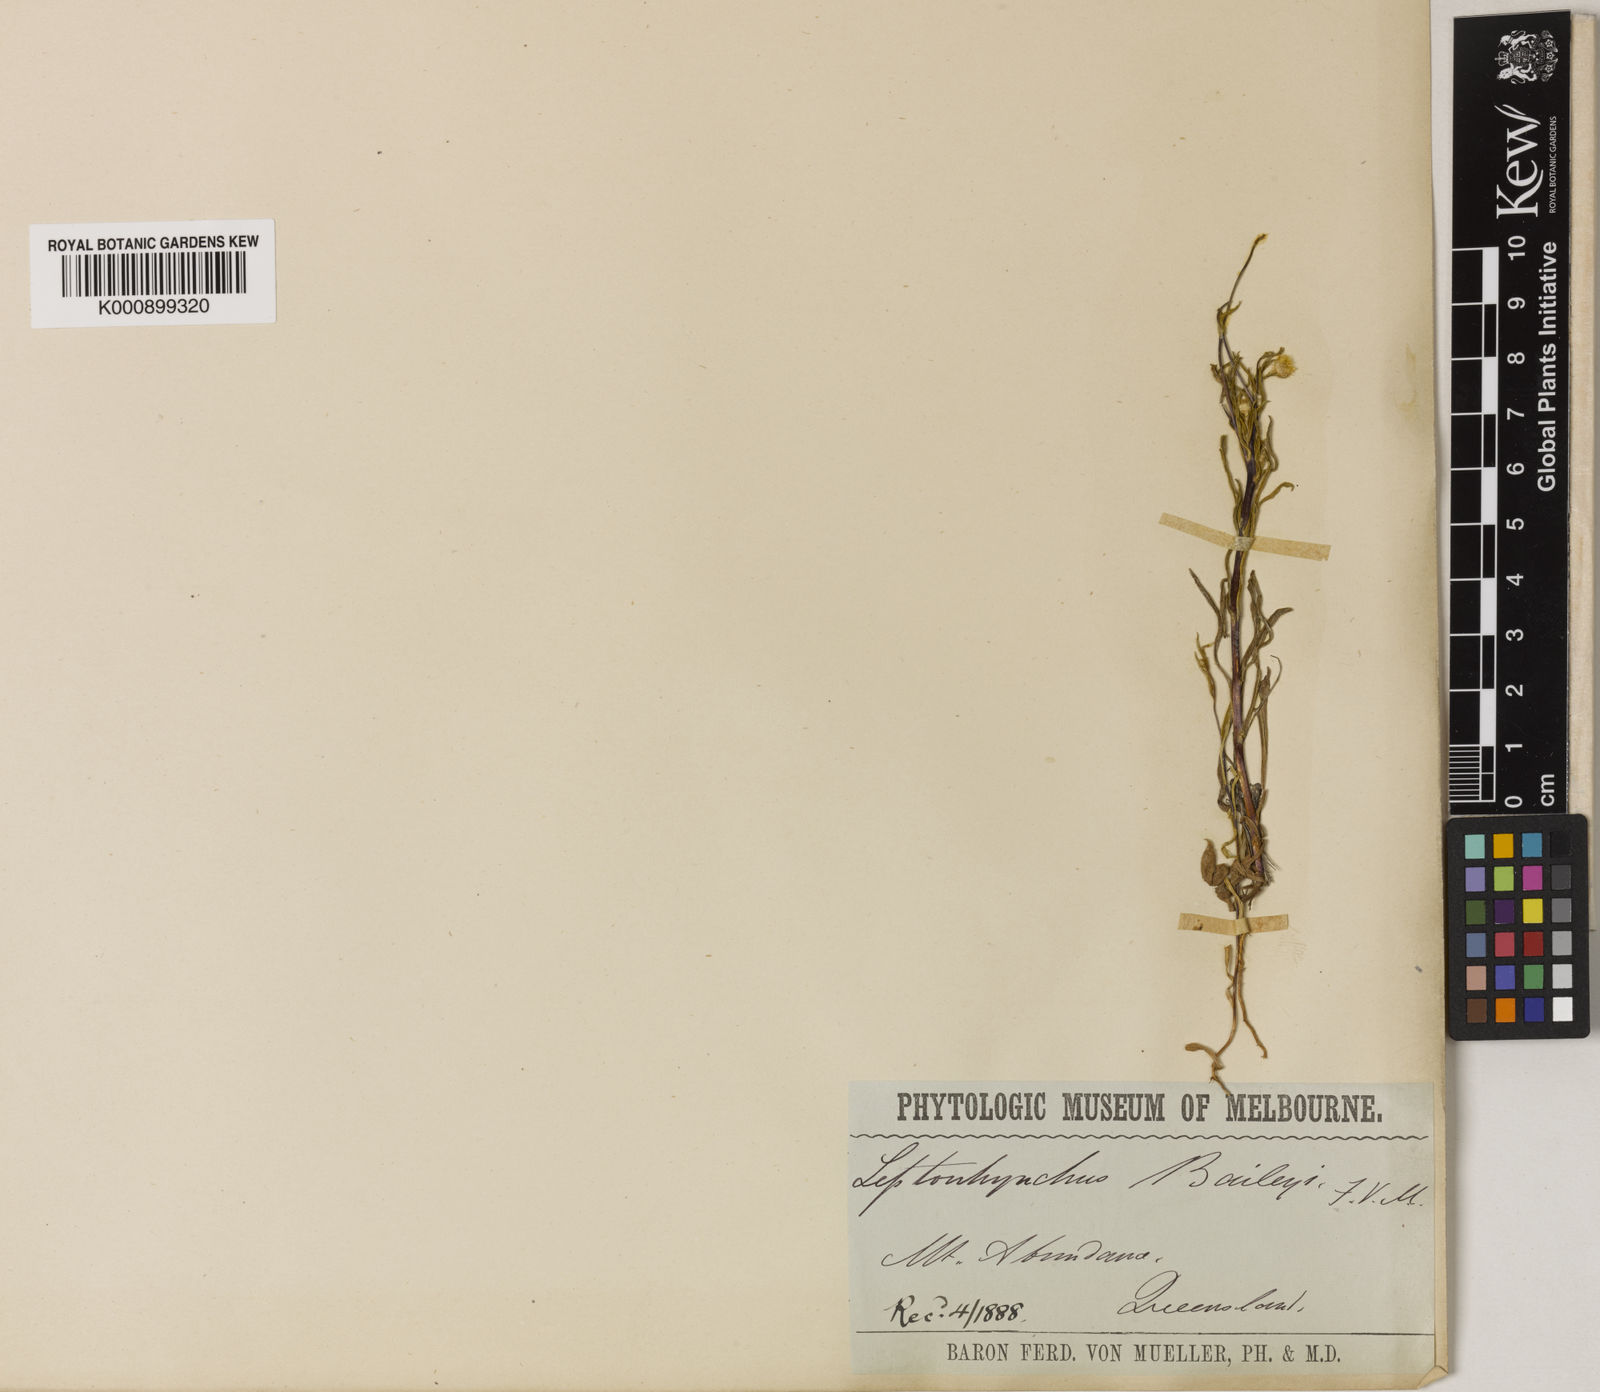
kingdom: Plantae
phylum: Tracheophyta
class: Magnoliopsida
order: Asterales
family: Asteraceae
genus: Leptorhynchos
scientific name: Leptorhynchos baileyi
